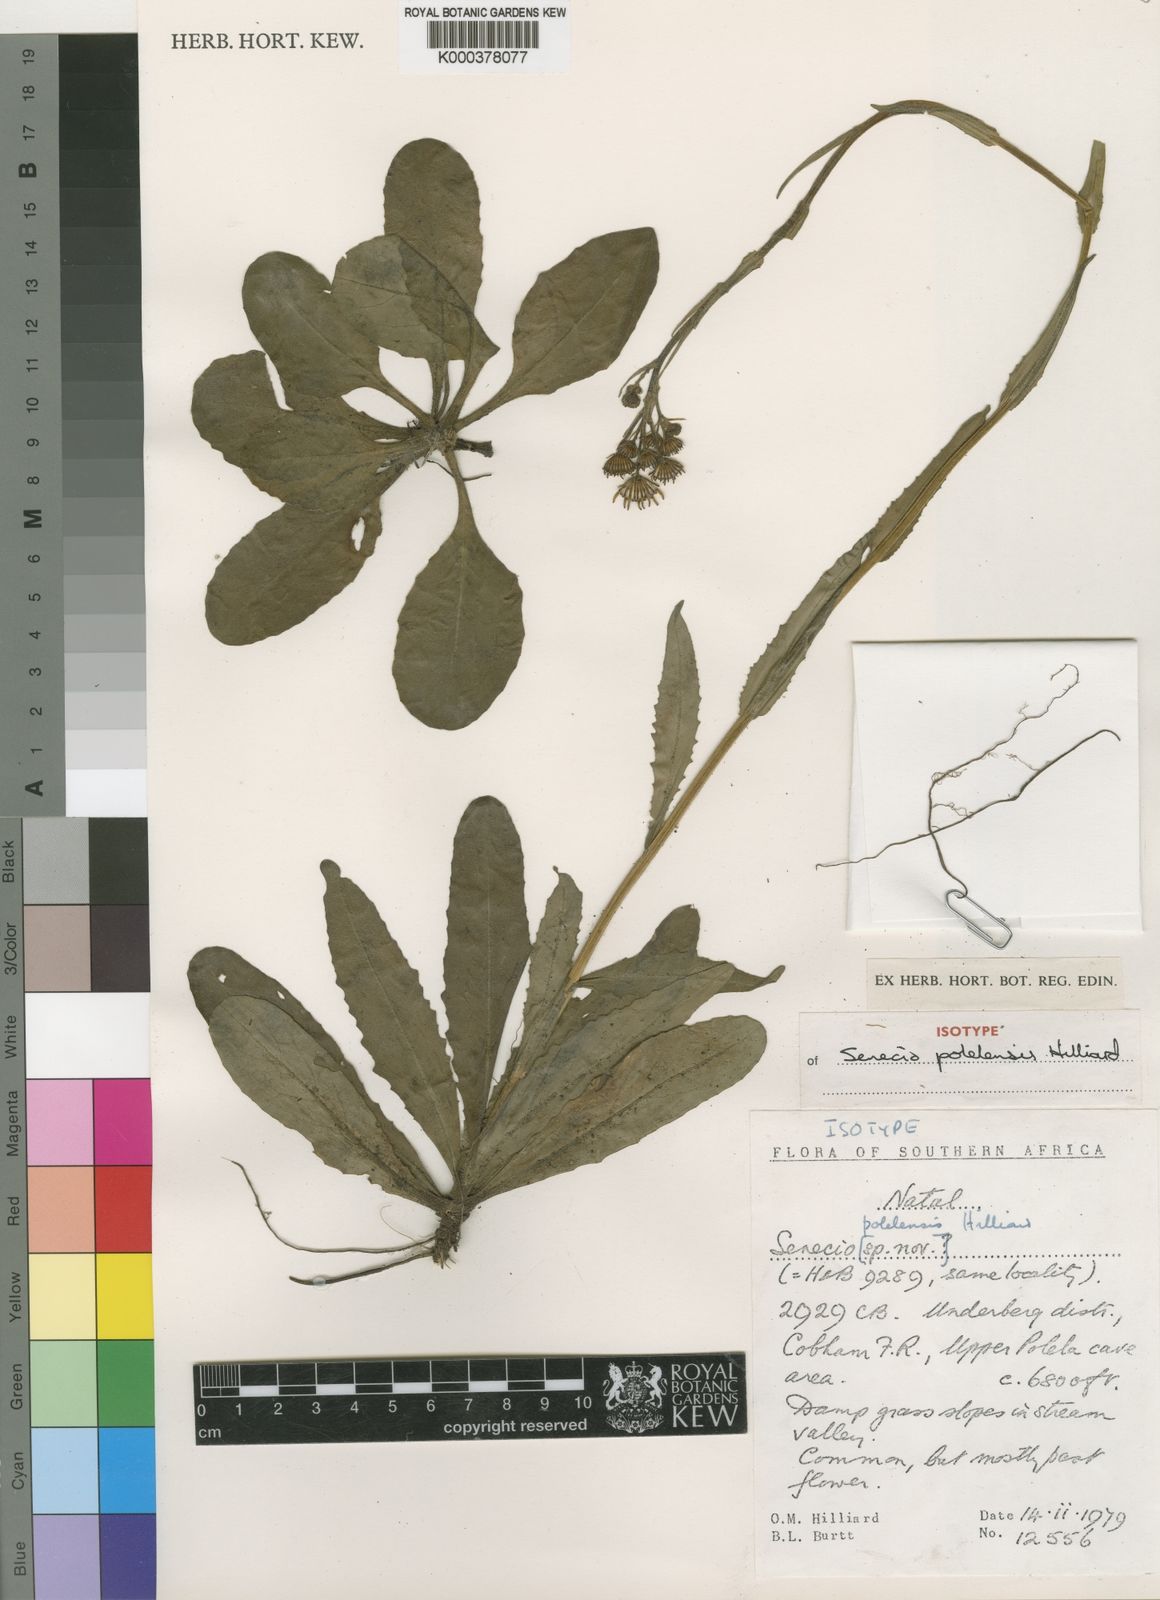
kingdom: Plantae
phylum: Tracheophyta
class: Magnoliopsida
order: Asterales
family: Asteraceae
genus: Senecio
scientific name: Senecio polelensis
